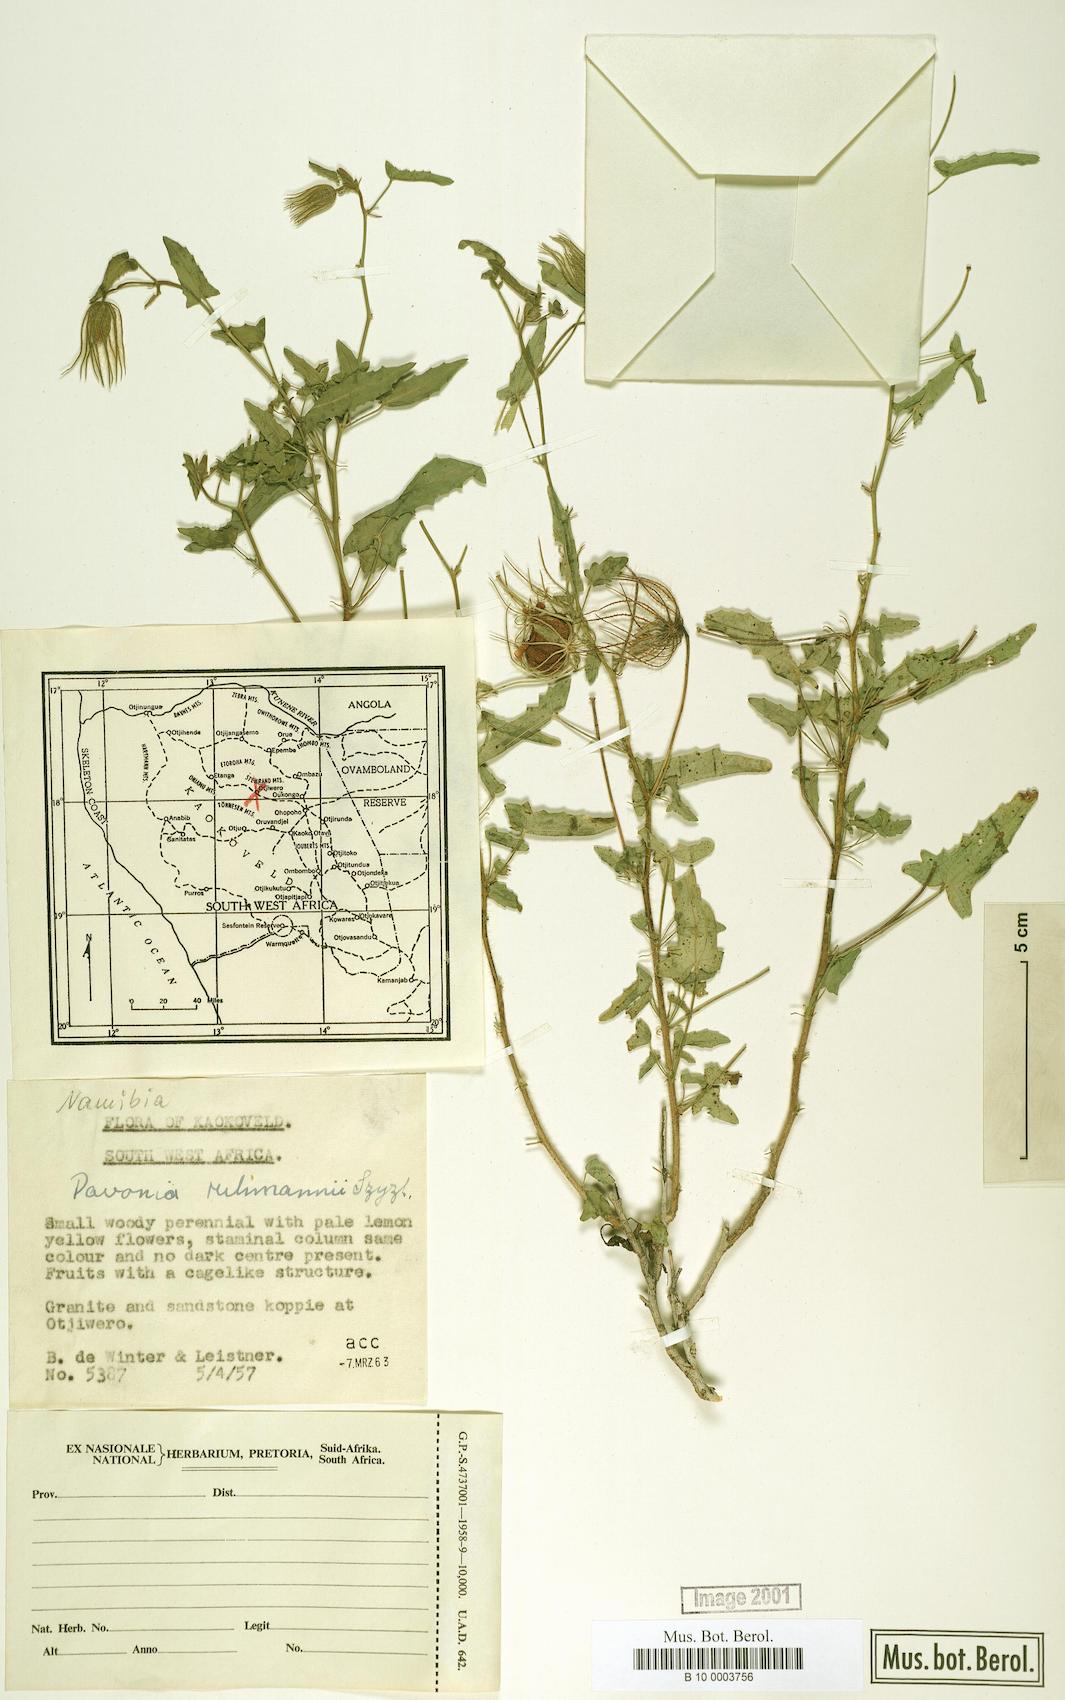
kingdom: Plantae
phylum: Tracheophyta
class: Magnoliopsida
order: Malvales
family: Malvaceae
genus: Pavonia
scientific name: Pavonia rehmannii
